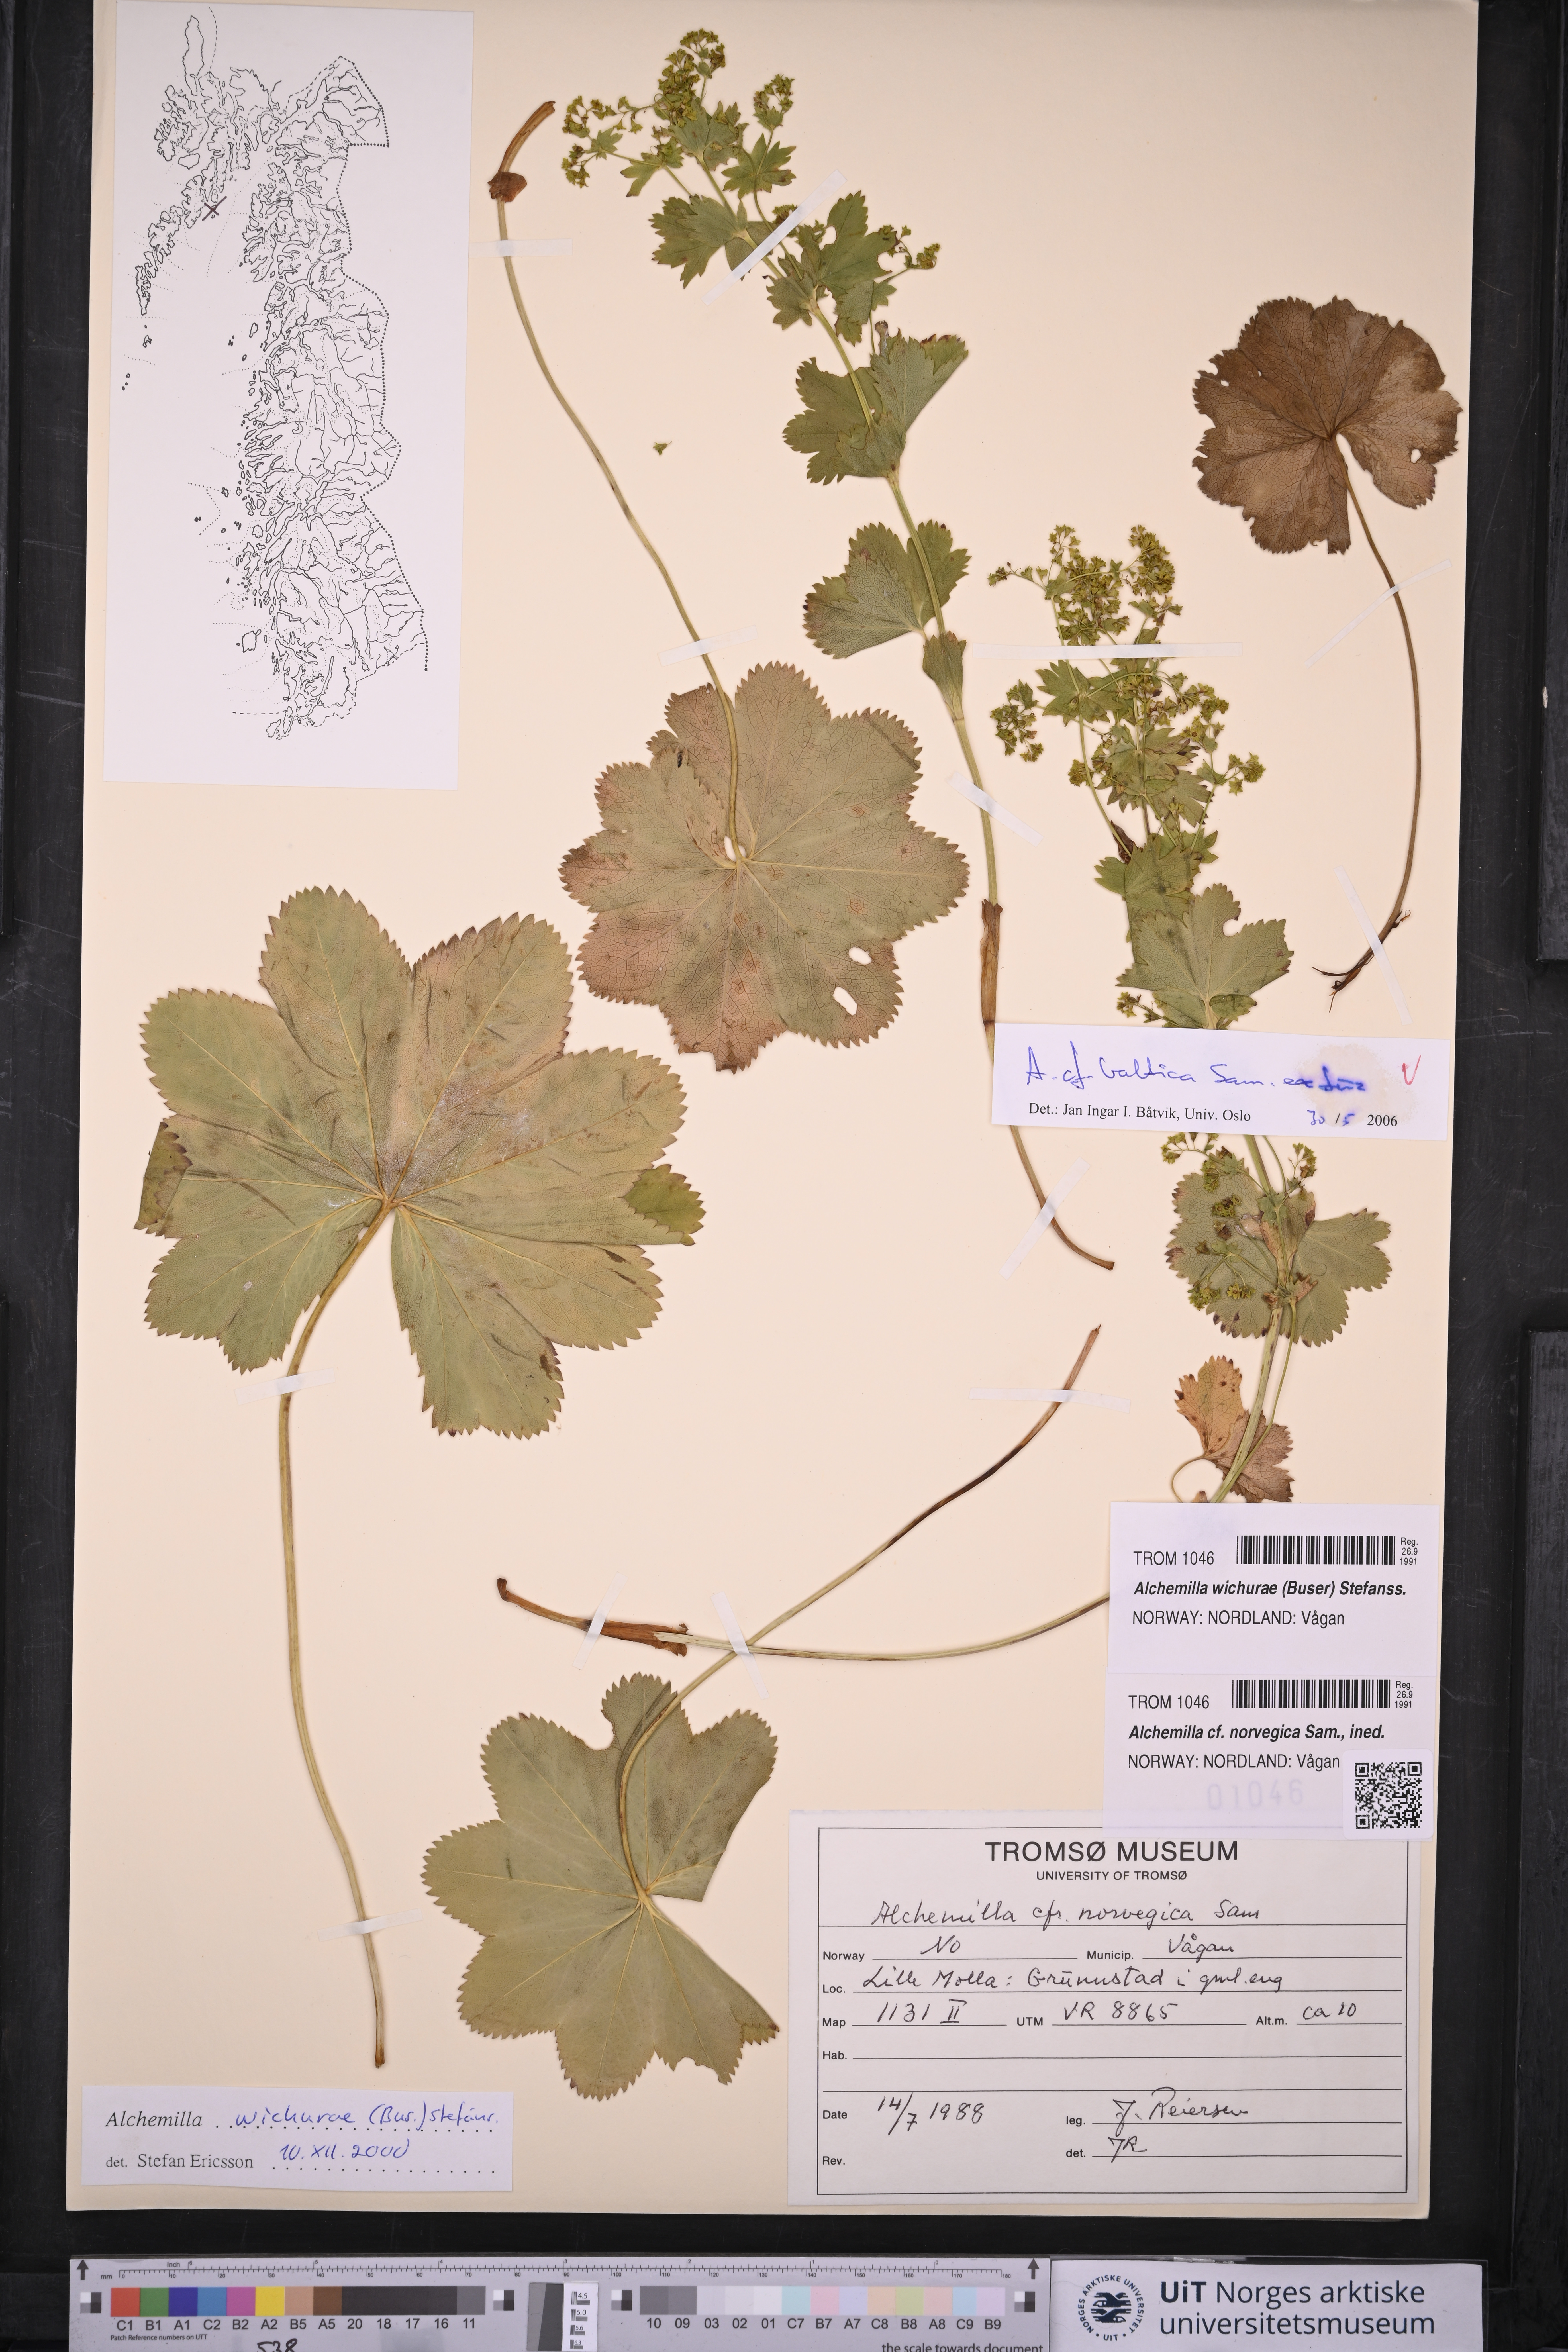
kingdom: Plantae
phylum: Tracheophyta
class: Magnoliopsida
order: Rosales
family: Rosaceae
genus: Alchemilla
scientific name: Alchemilla baltica
